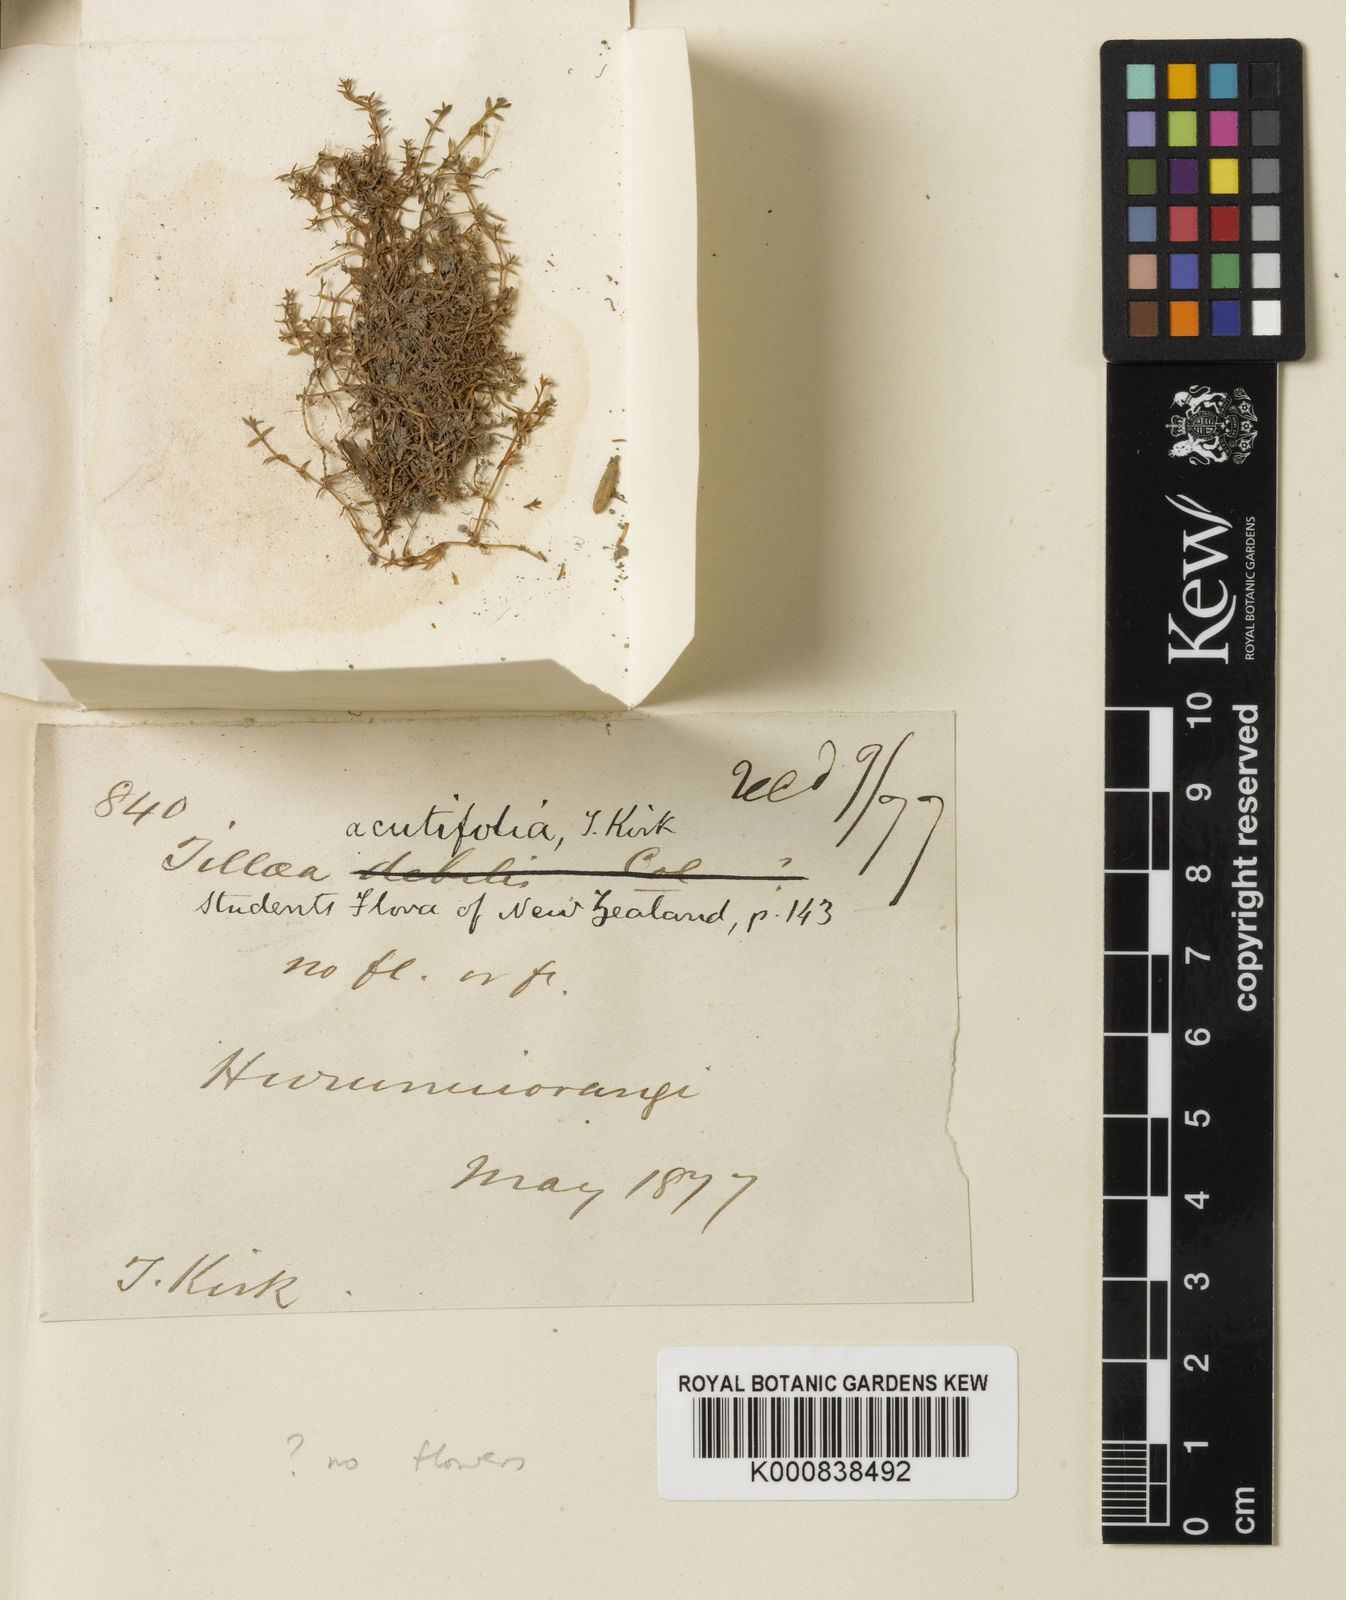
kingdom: Plantae
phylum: Tracheophyta
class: Magnoliopsida
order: Saxifragales
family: Crassulaceae
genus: Crassula
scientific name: Crassula ruamahanga
